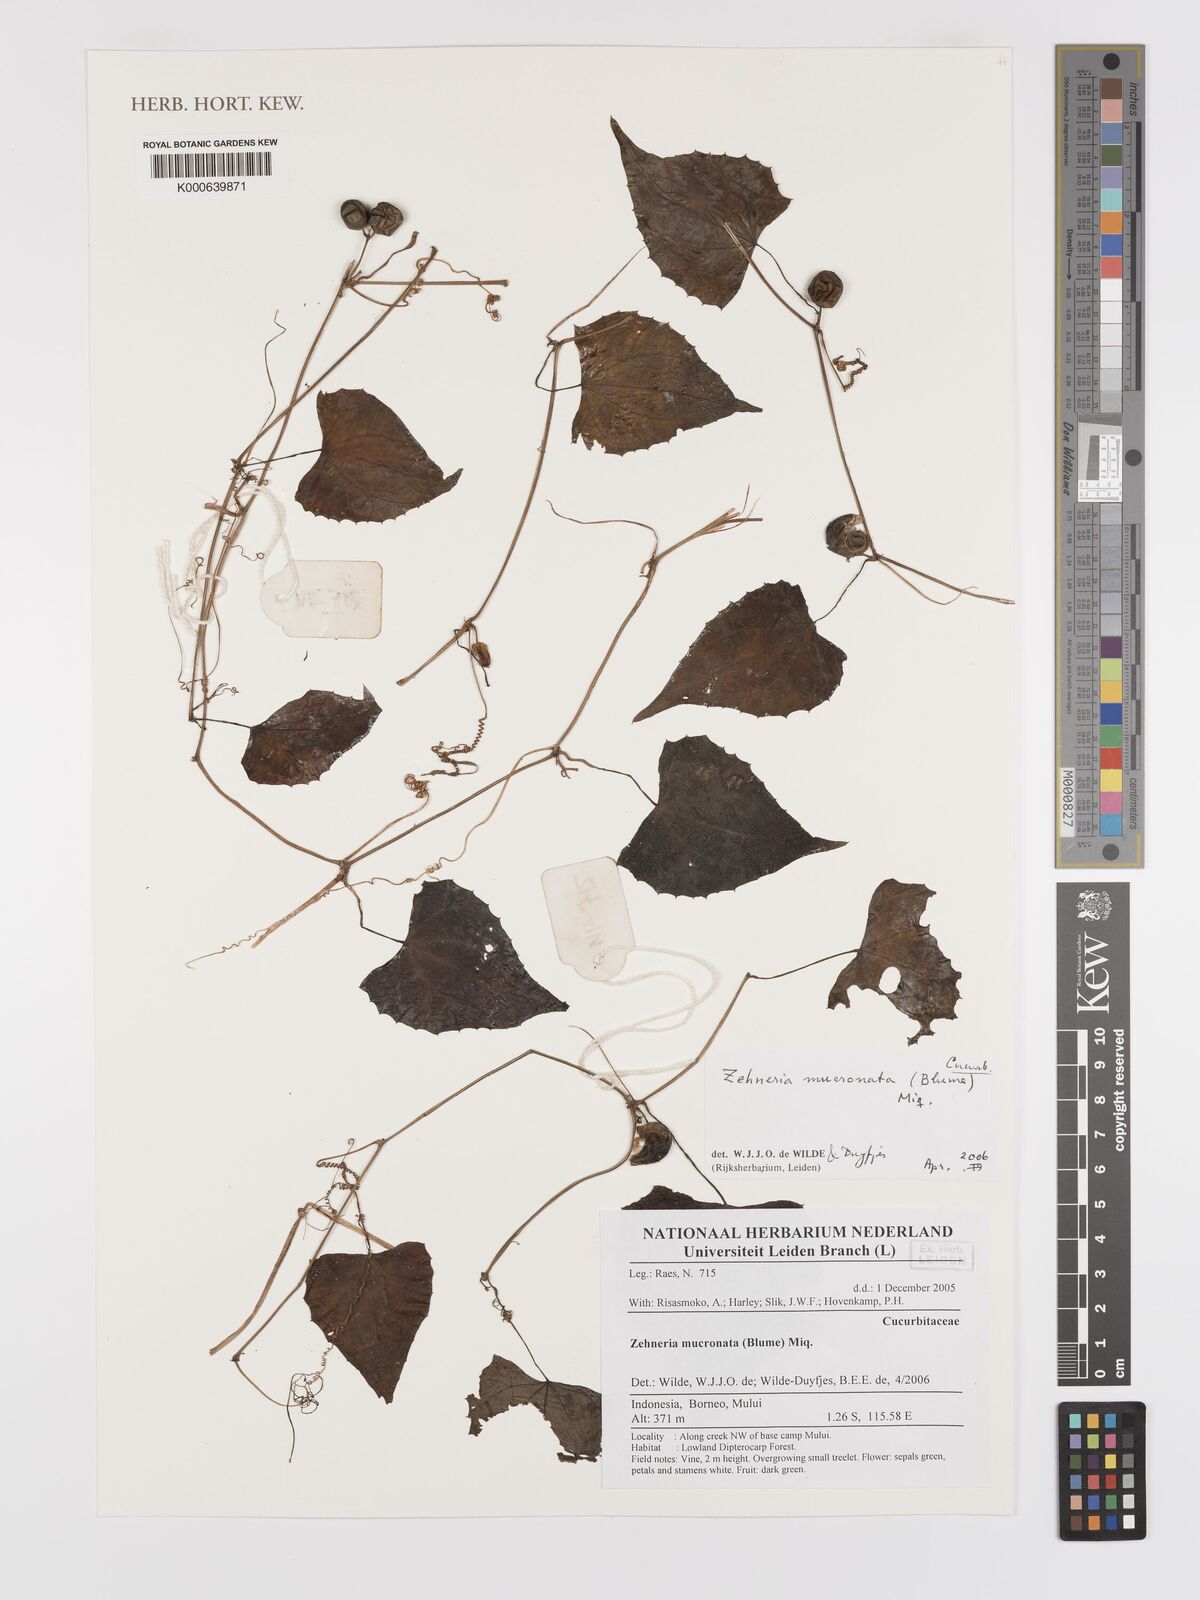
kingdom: Plantae
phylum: Tracheophyta
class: Magnoliopsida
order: Cucurbitales
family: Cucurbitaceae
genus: Zehneria
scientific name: Zehneria mucronata
